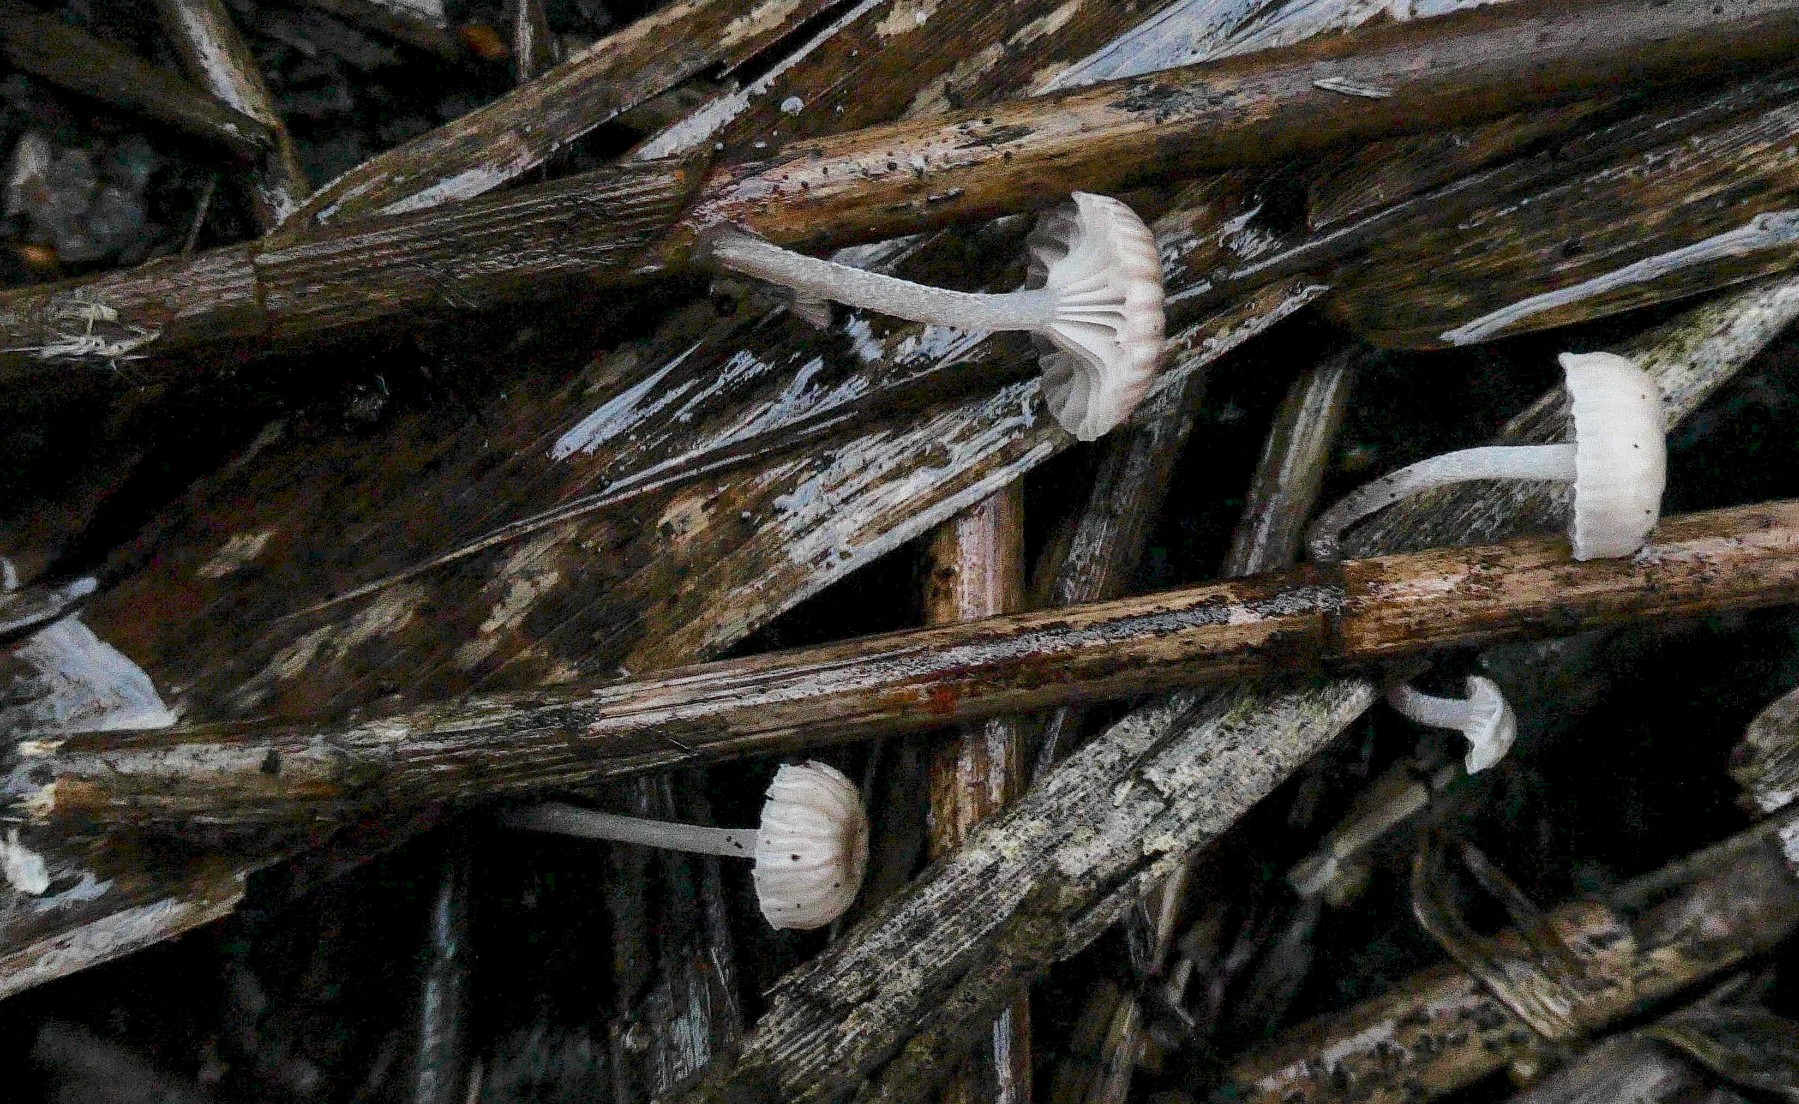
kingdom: Fungi
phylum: Basidiomycota
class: Agaricomycetes
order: Agaricales
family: Mycenaceae
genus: Mycena
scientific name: Mycena belliae
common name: tagrørs-huesvamp
